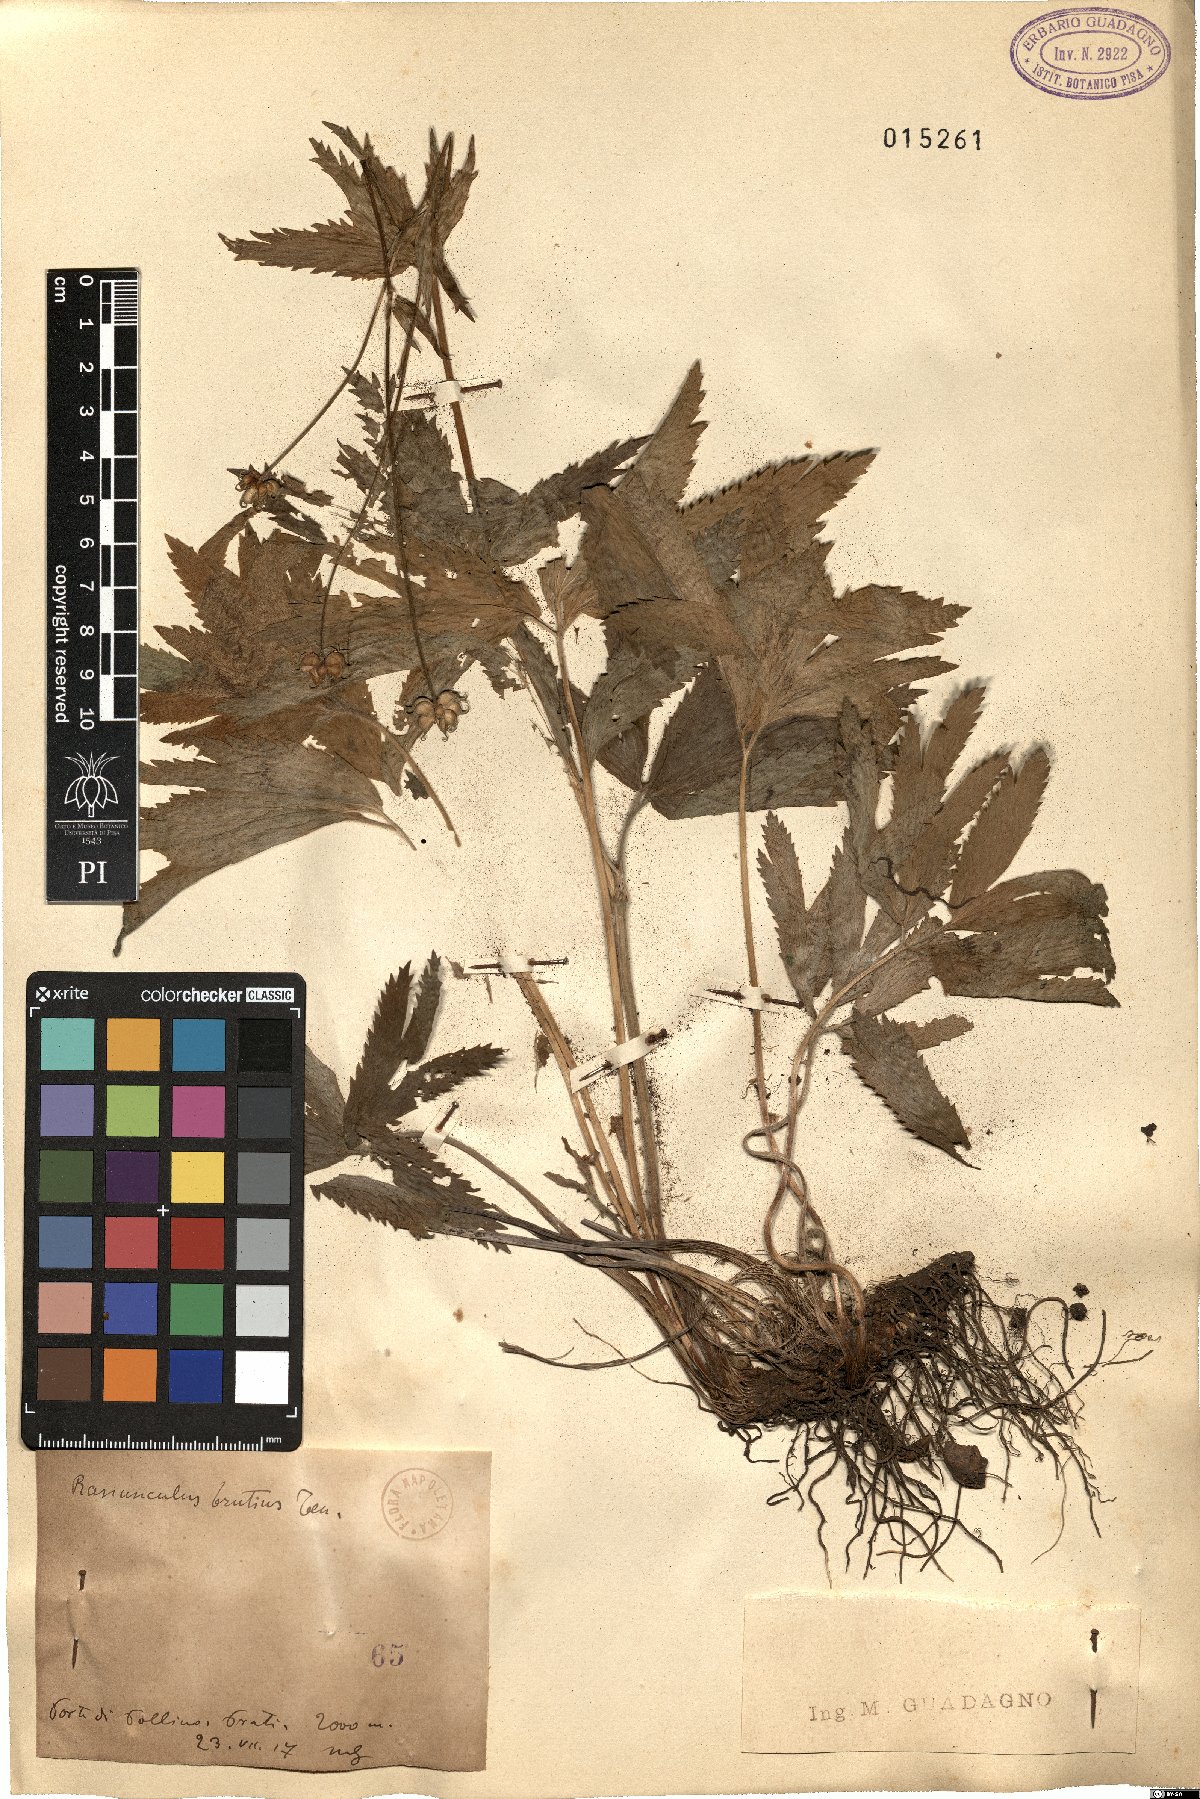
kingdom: Plantae
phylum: Tracheophyta
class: Magnoliopsida
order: Ranunculales
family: Ranunculaceae
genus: Ranunculus
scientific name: Ranunculus brutius
